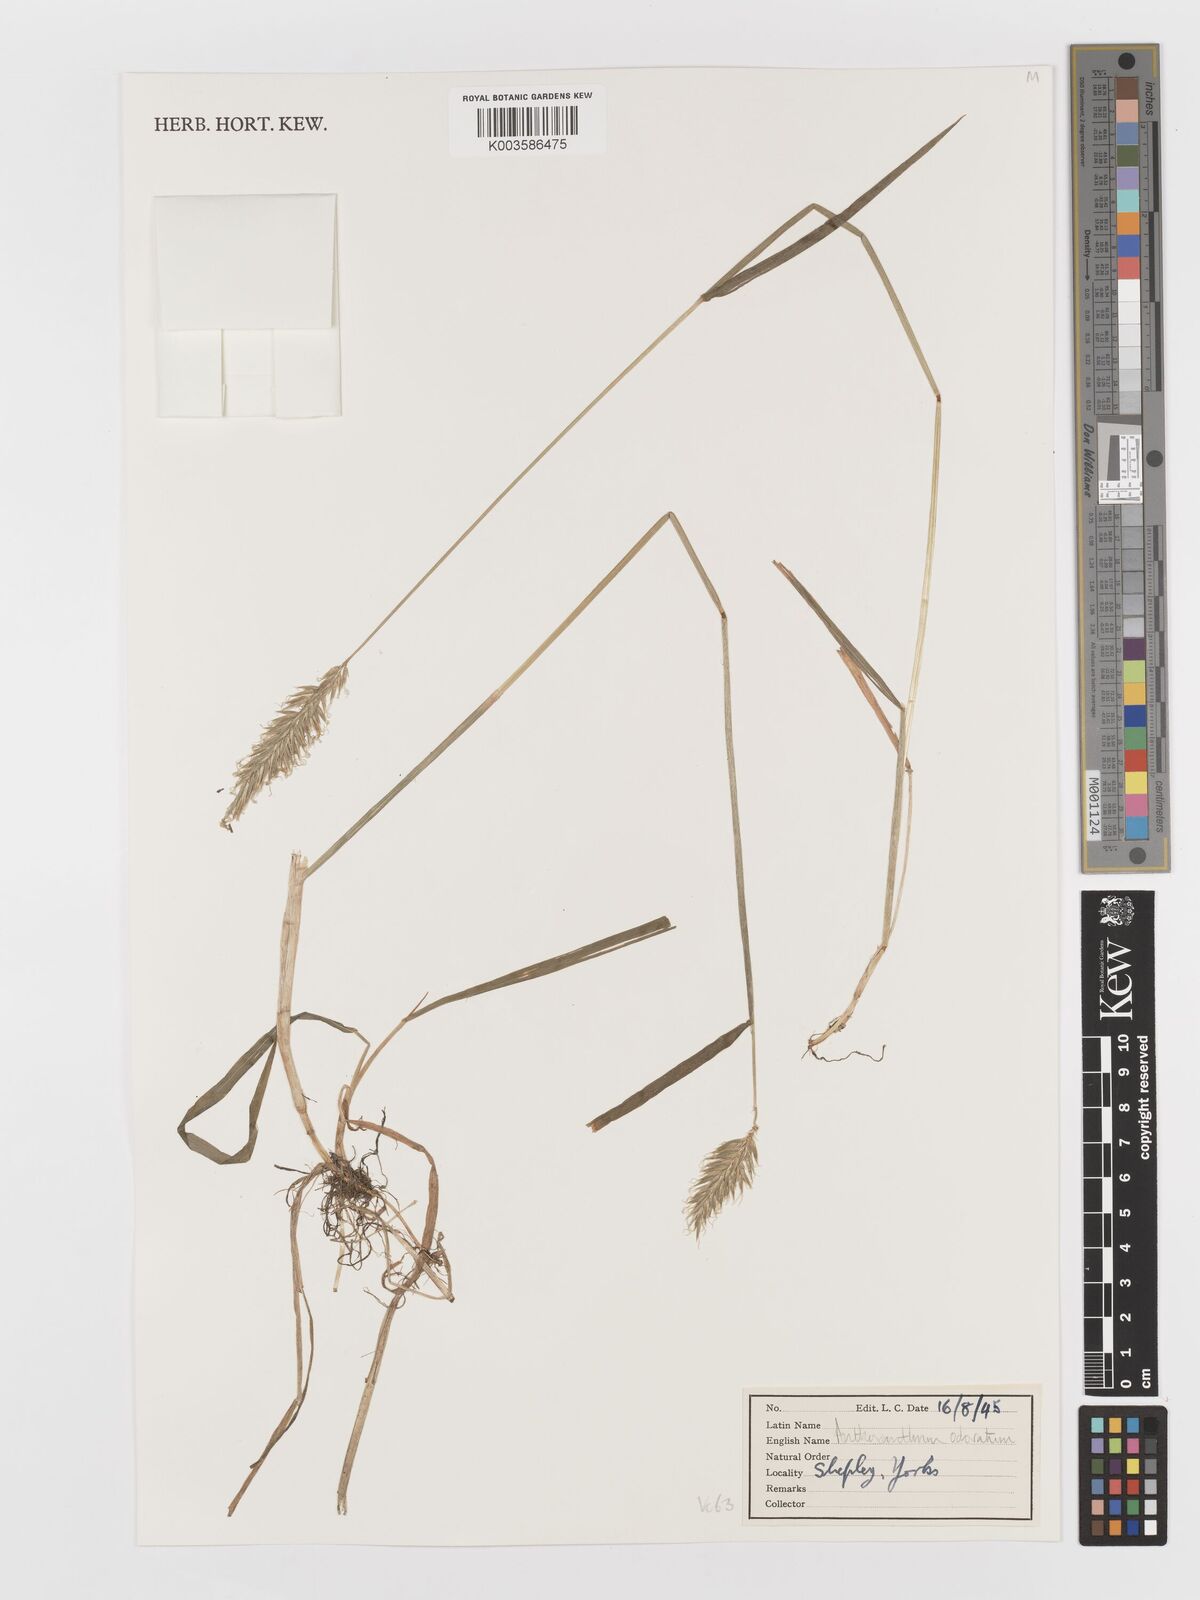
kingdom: Plantae
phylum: Tracheophyta
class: Liliopsida
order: Poales
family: Poaceae
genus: Anthoxanthum
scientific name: Anthoxanthum odoratum
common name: Sweet vernalgrass
